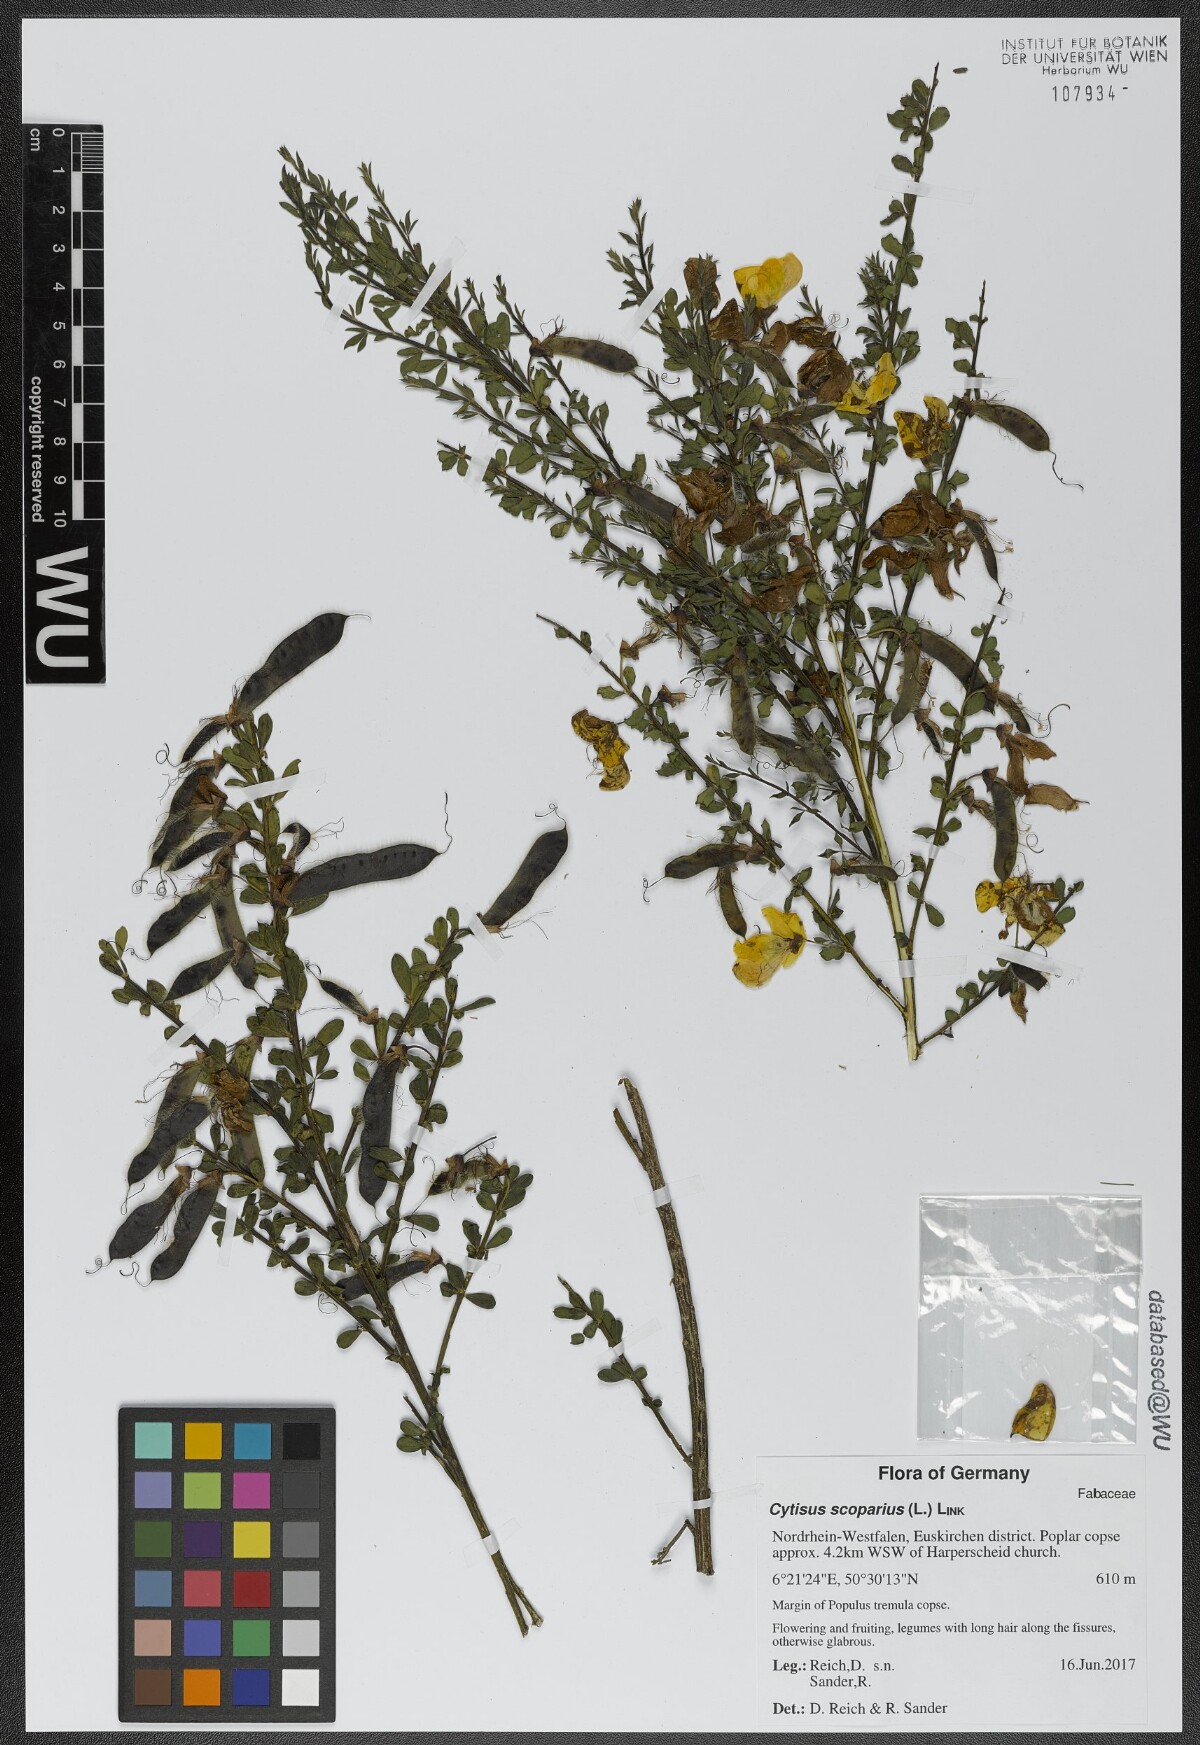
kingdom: Plantae
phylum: Tracheophyta
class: Magnoliopsida
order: Fabales
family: Fabaceae
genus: Cytisus
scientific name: Cytisus scoparius
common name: Scotch broom
